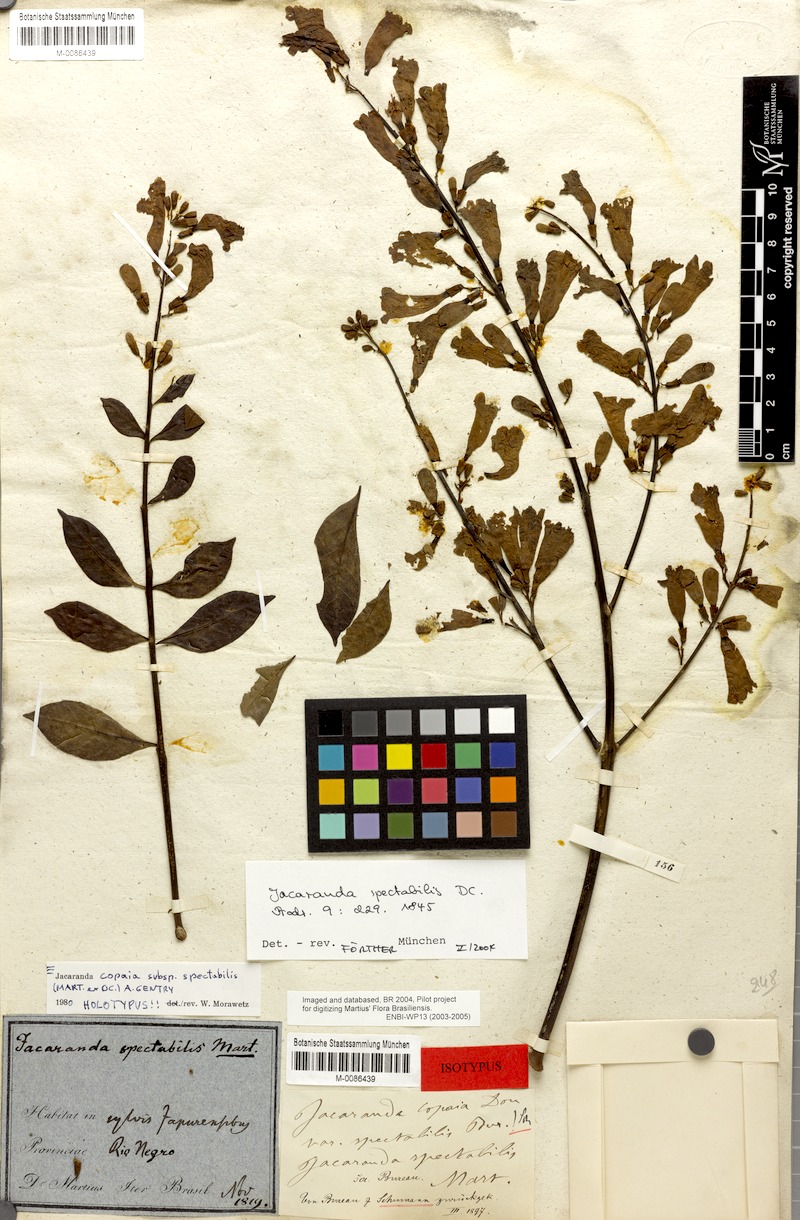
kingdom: Plantae
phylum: Tracheophyta
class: Magnoliopsida
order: Lamiales
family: Bignoniaceae
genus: Jacaranda
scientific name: Jacaranda copaia
